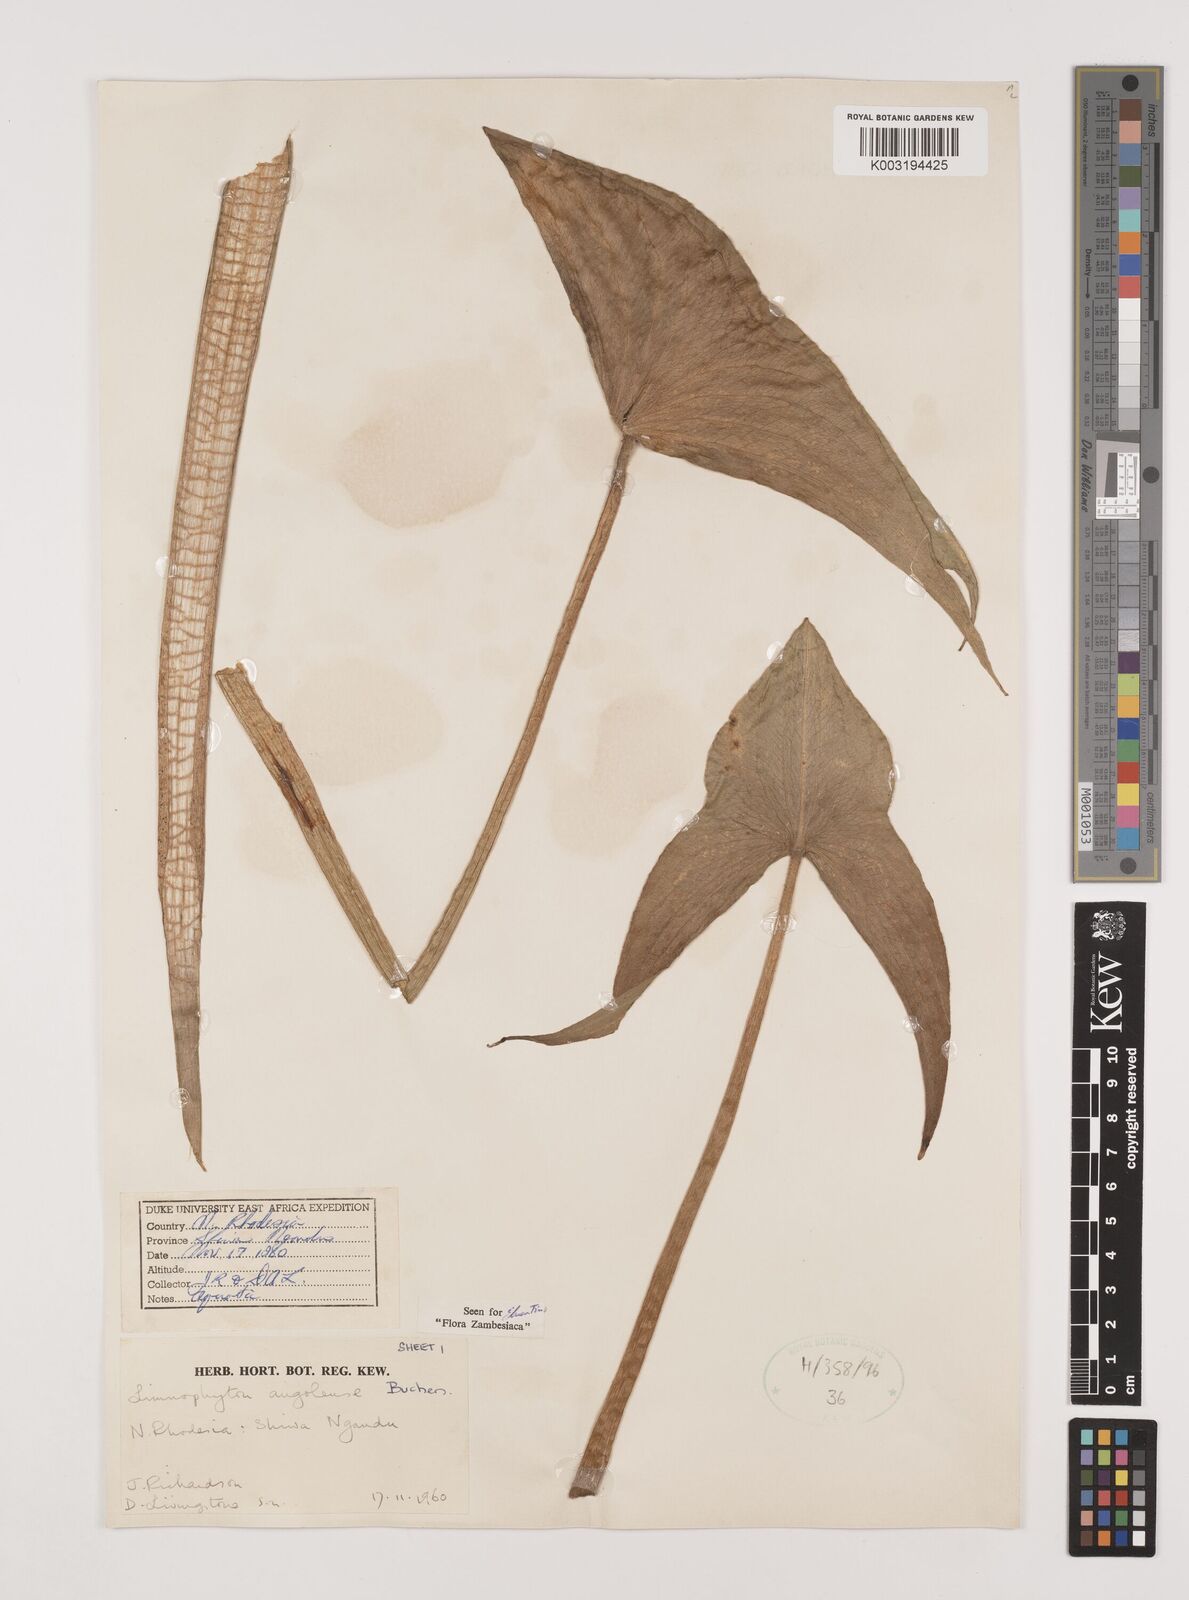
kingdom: Plantae
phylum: Tracheophyta
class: Liliopsida
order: Alismatales
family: Alismataceae
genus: Limnophyton
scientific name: Limnophyton
